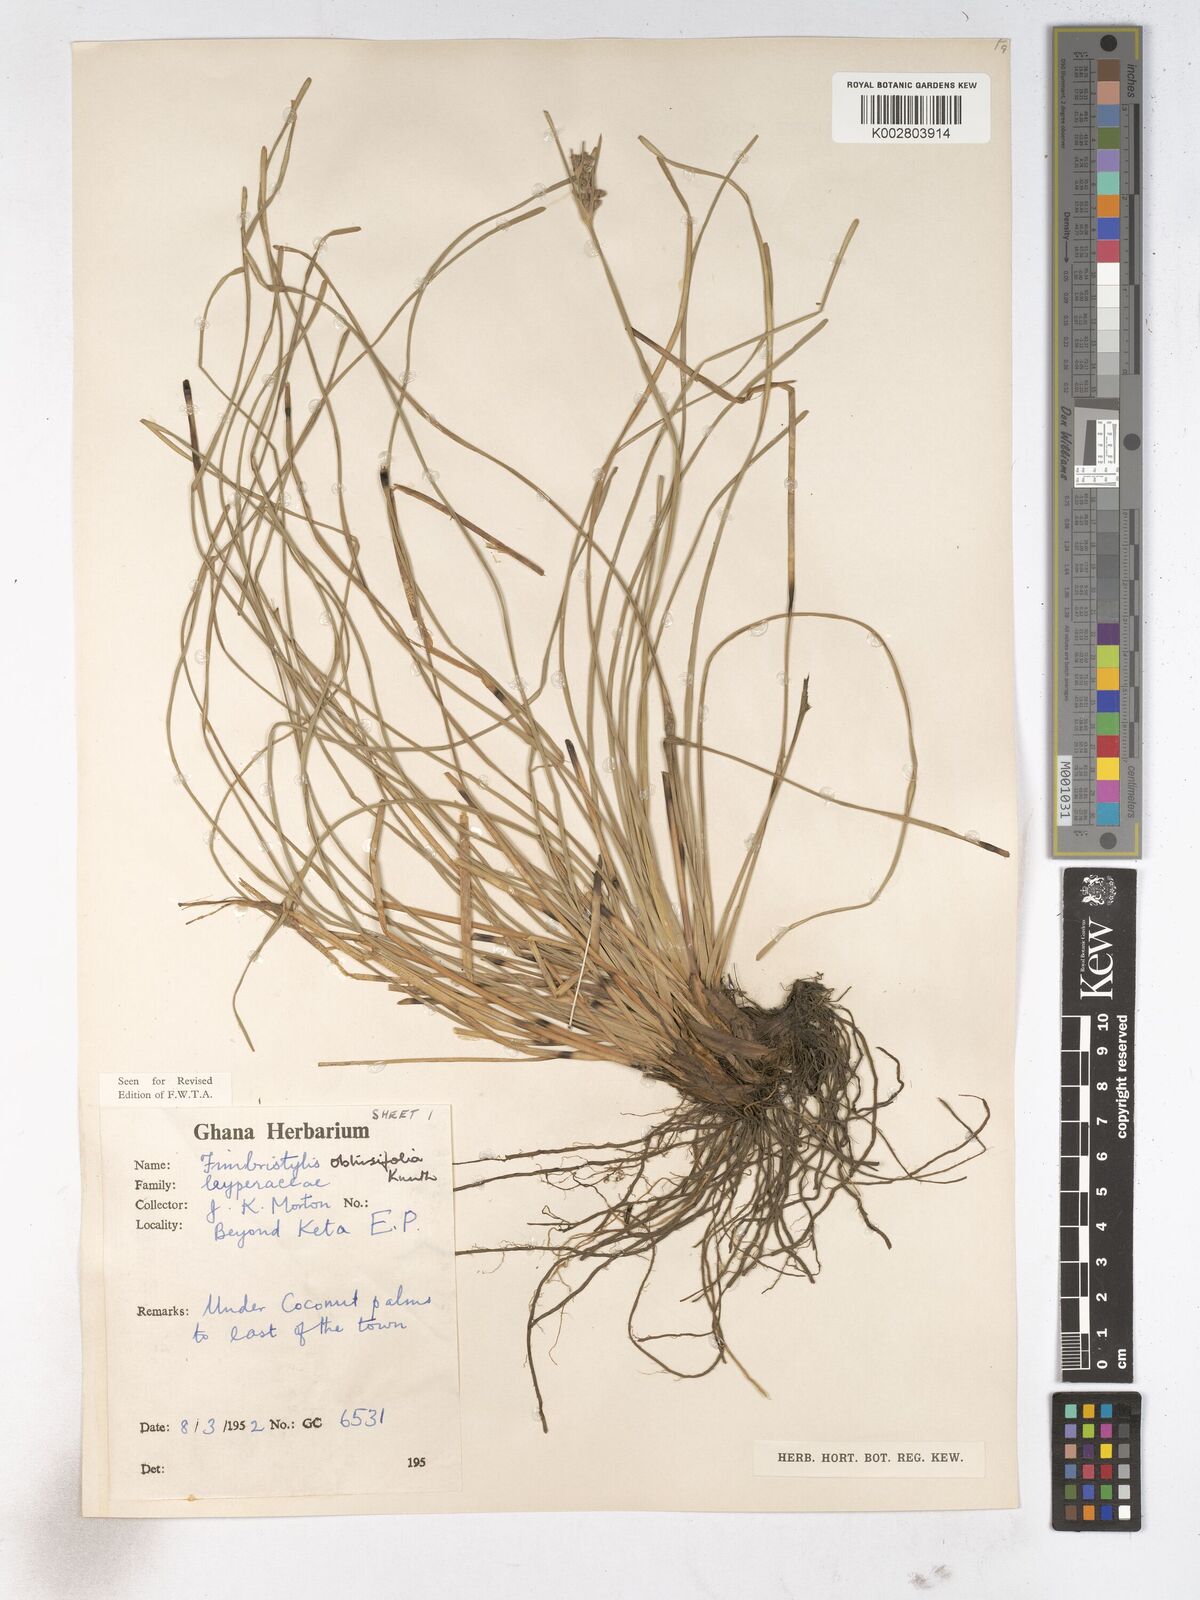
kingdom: Plantae
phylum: Tracheophyta
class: Liliopsida
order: Poales
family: Cyperaceae
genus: Fimbristylis
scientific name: Fimbristylis cymosa
